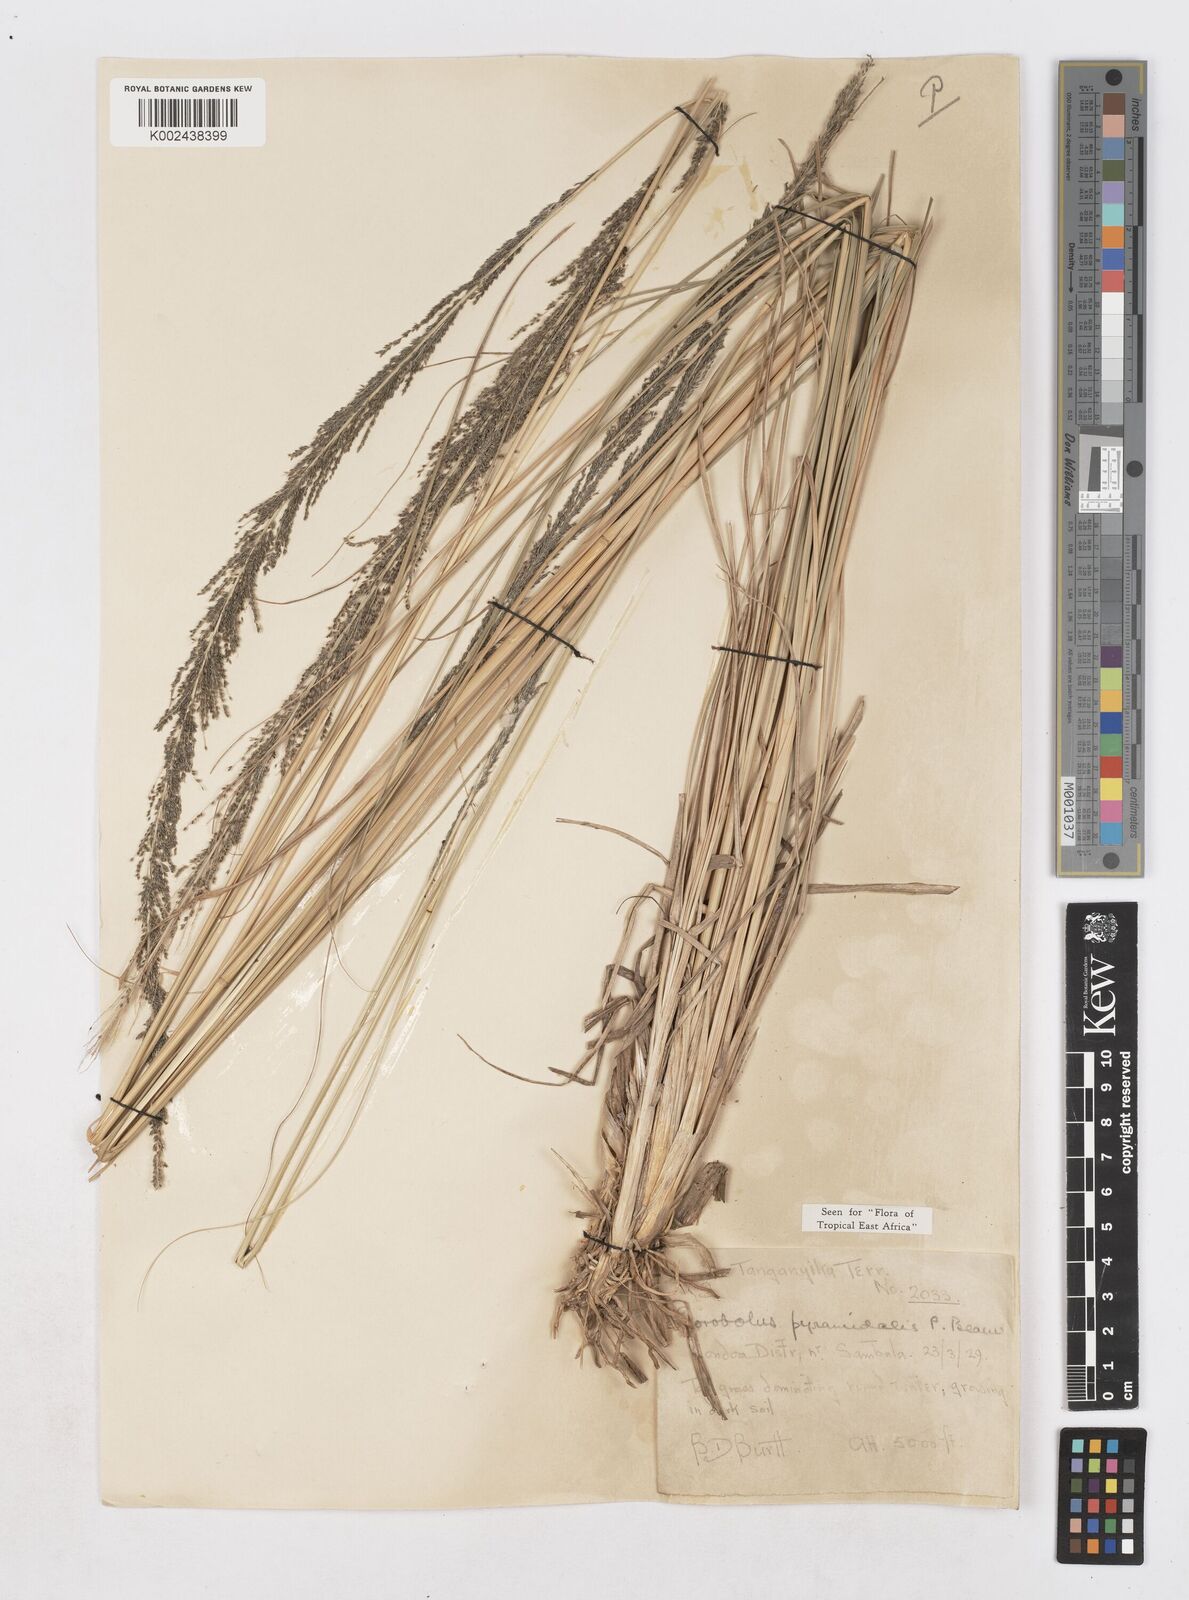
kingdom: Plantae
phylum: Tracheophyta
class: Liliopsida
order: Poales
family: Poaceae
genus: Sporobolus
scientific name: Sporobolus pyramidalis
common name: West indian dropseed
